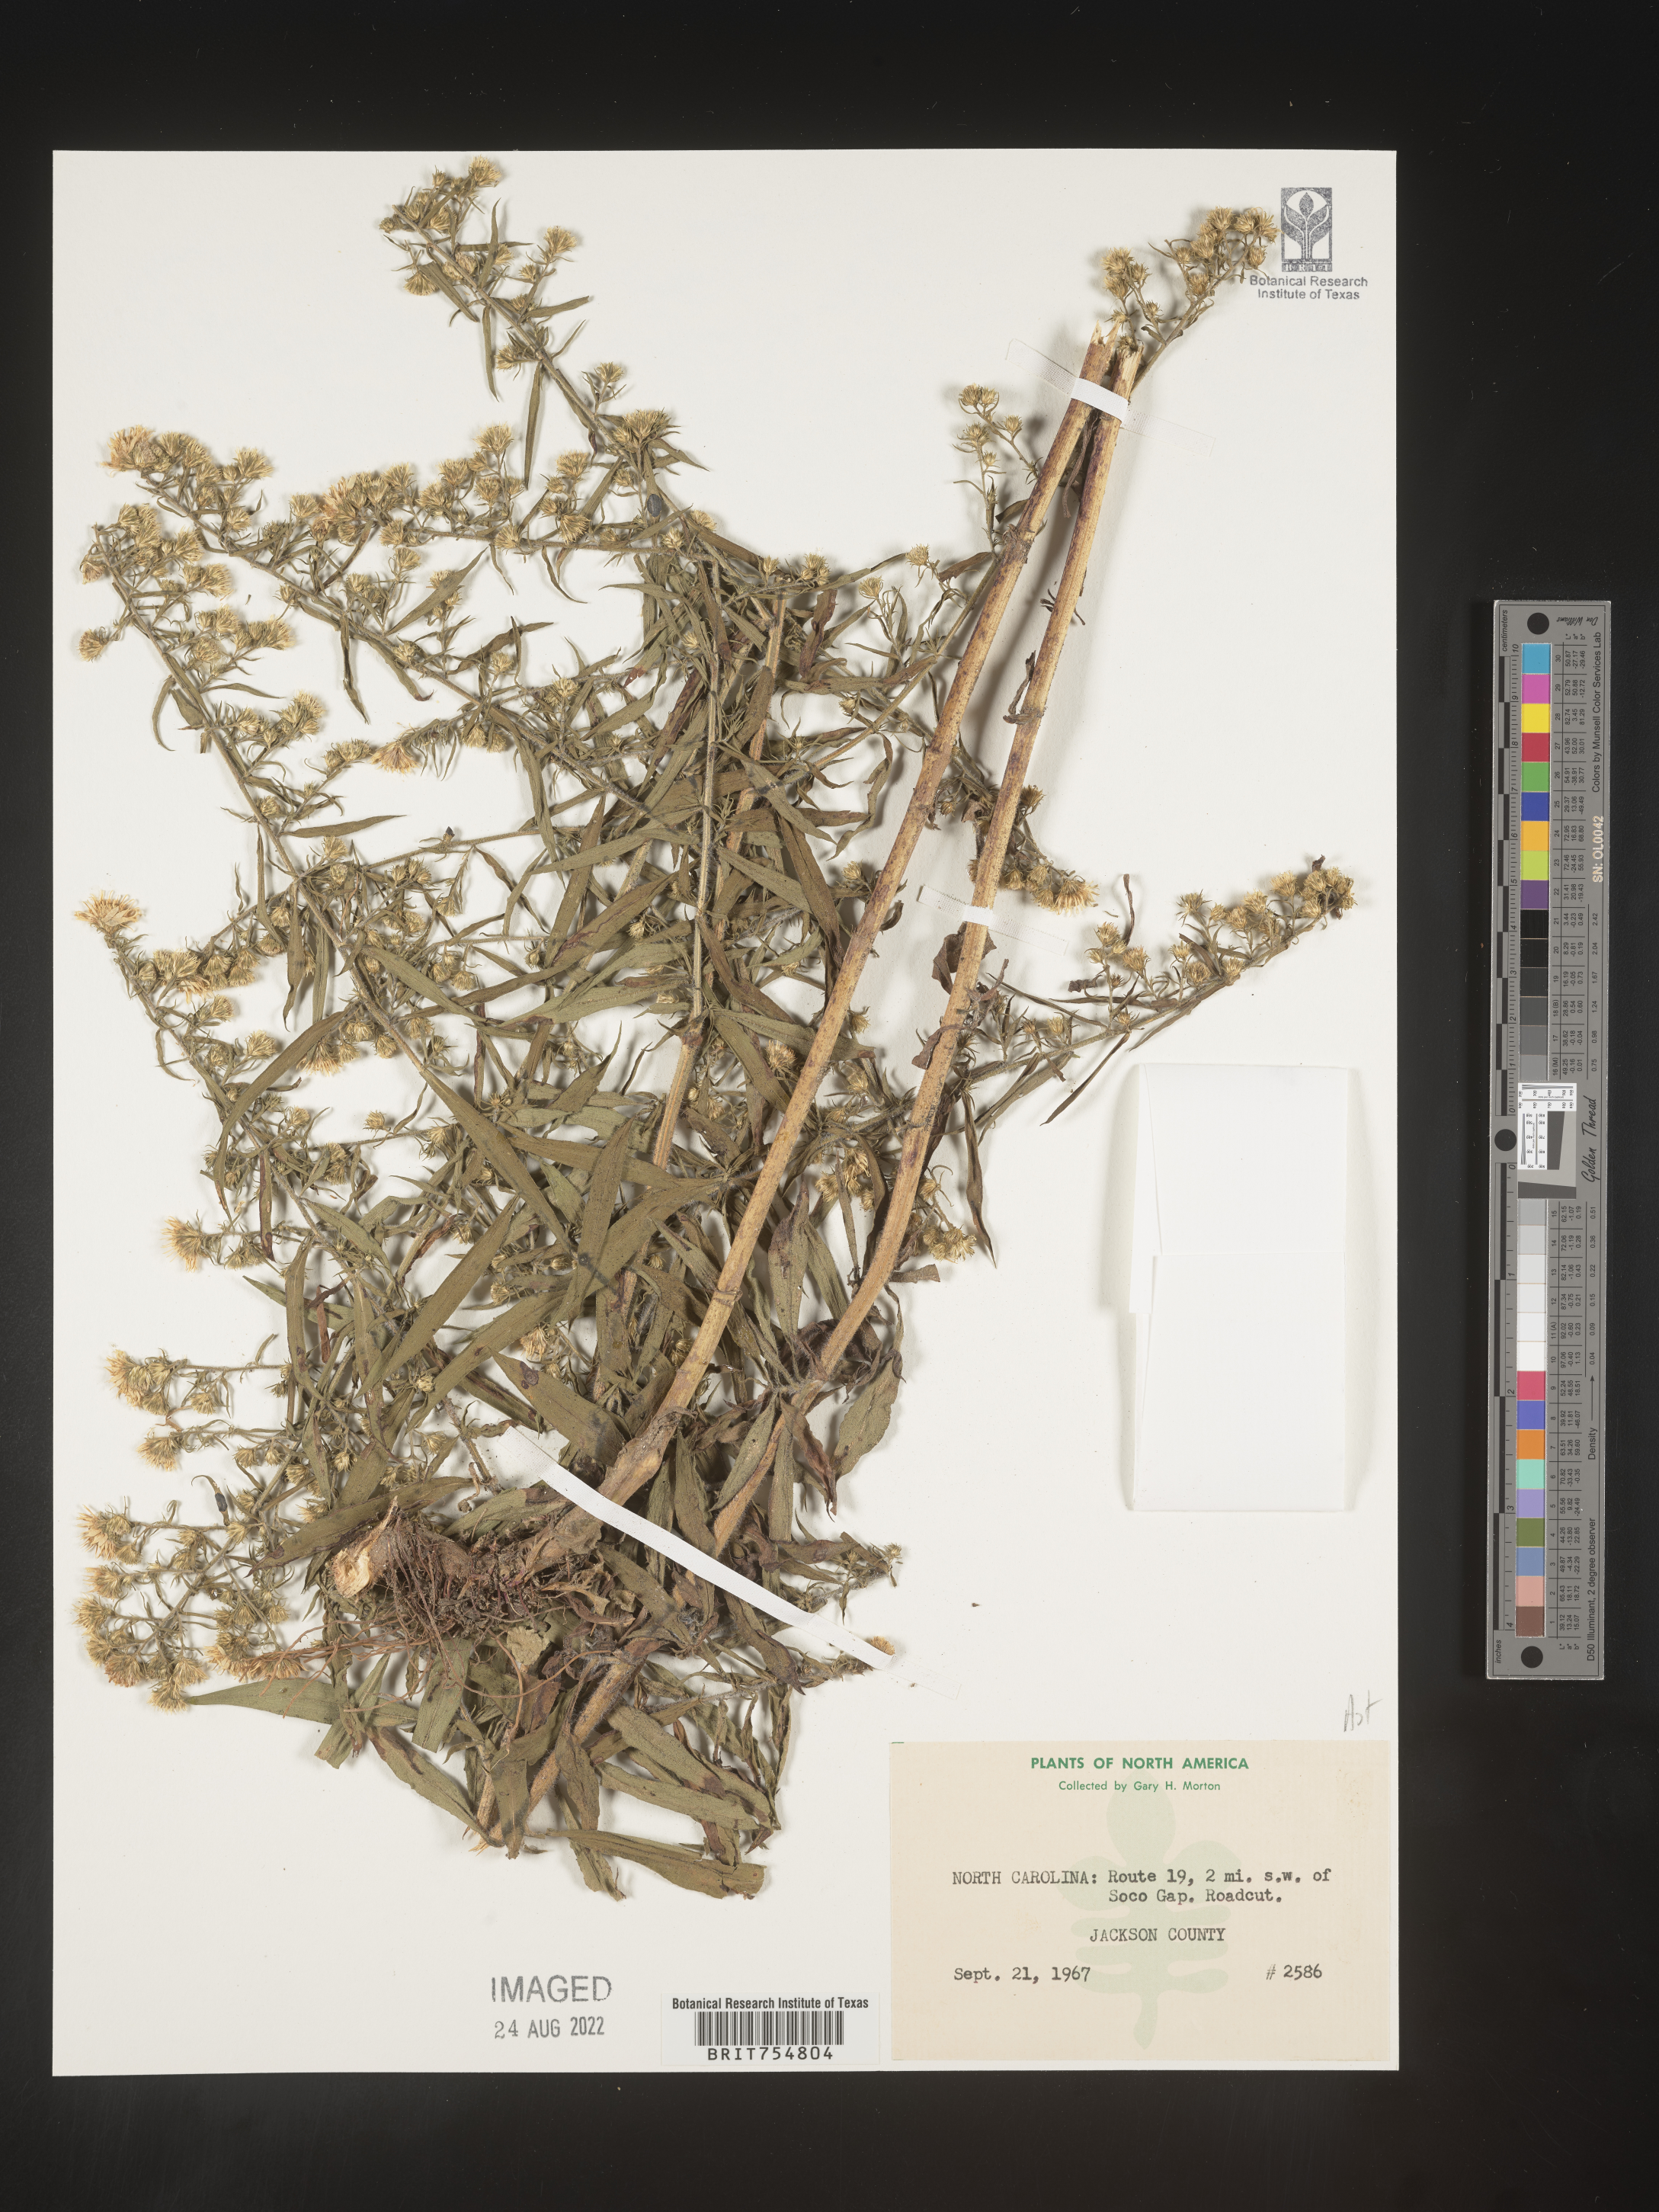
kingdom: Plantae
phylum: Tracheophyta
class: Magnoliopsida
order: Asterales
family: Asteraceae
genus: Symphyotrichum
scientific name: Symphyotrichum
